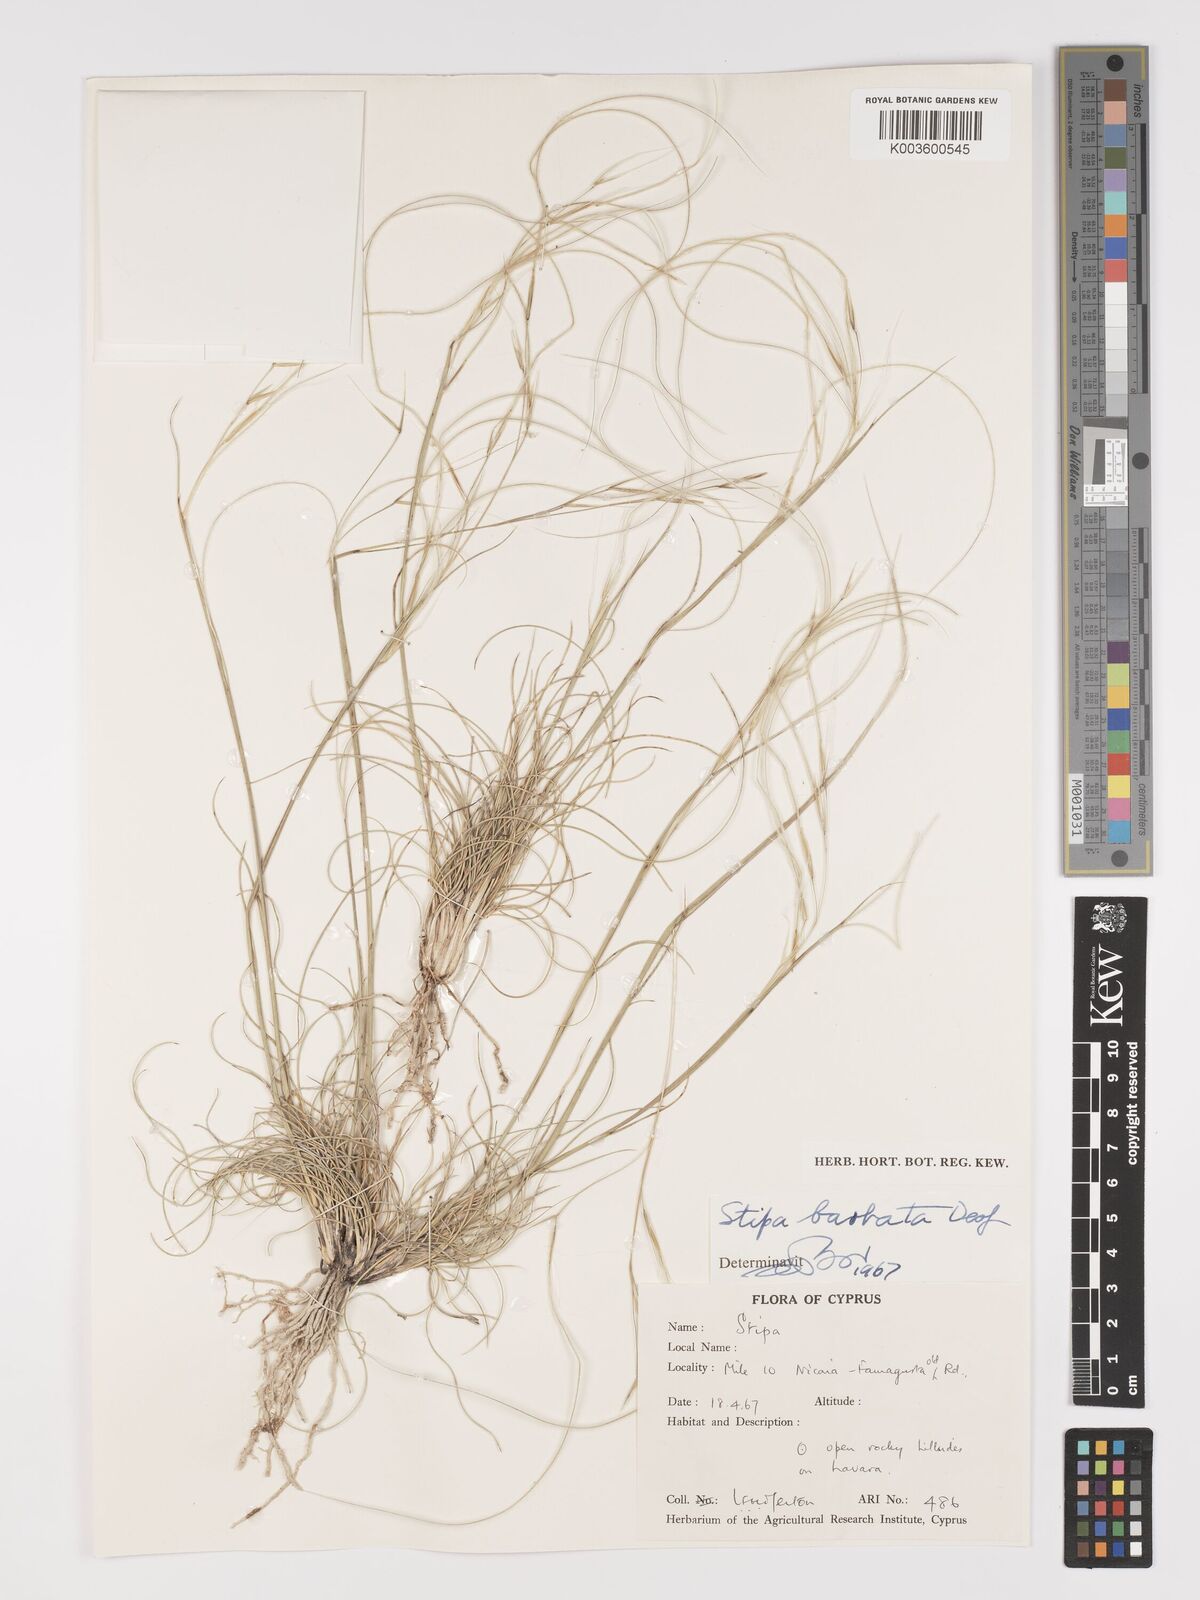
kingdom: Plantae
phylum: Tracheophyta
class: Liliopsida
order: Poales
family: Poaceae
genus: Stipa
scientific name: Stipa barbata
